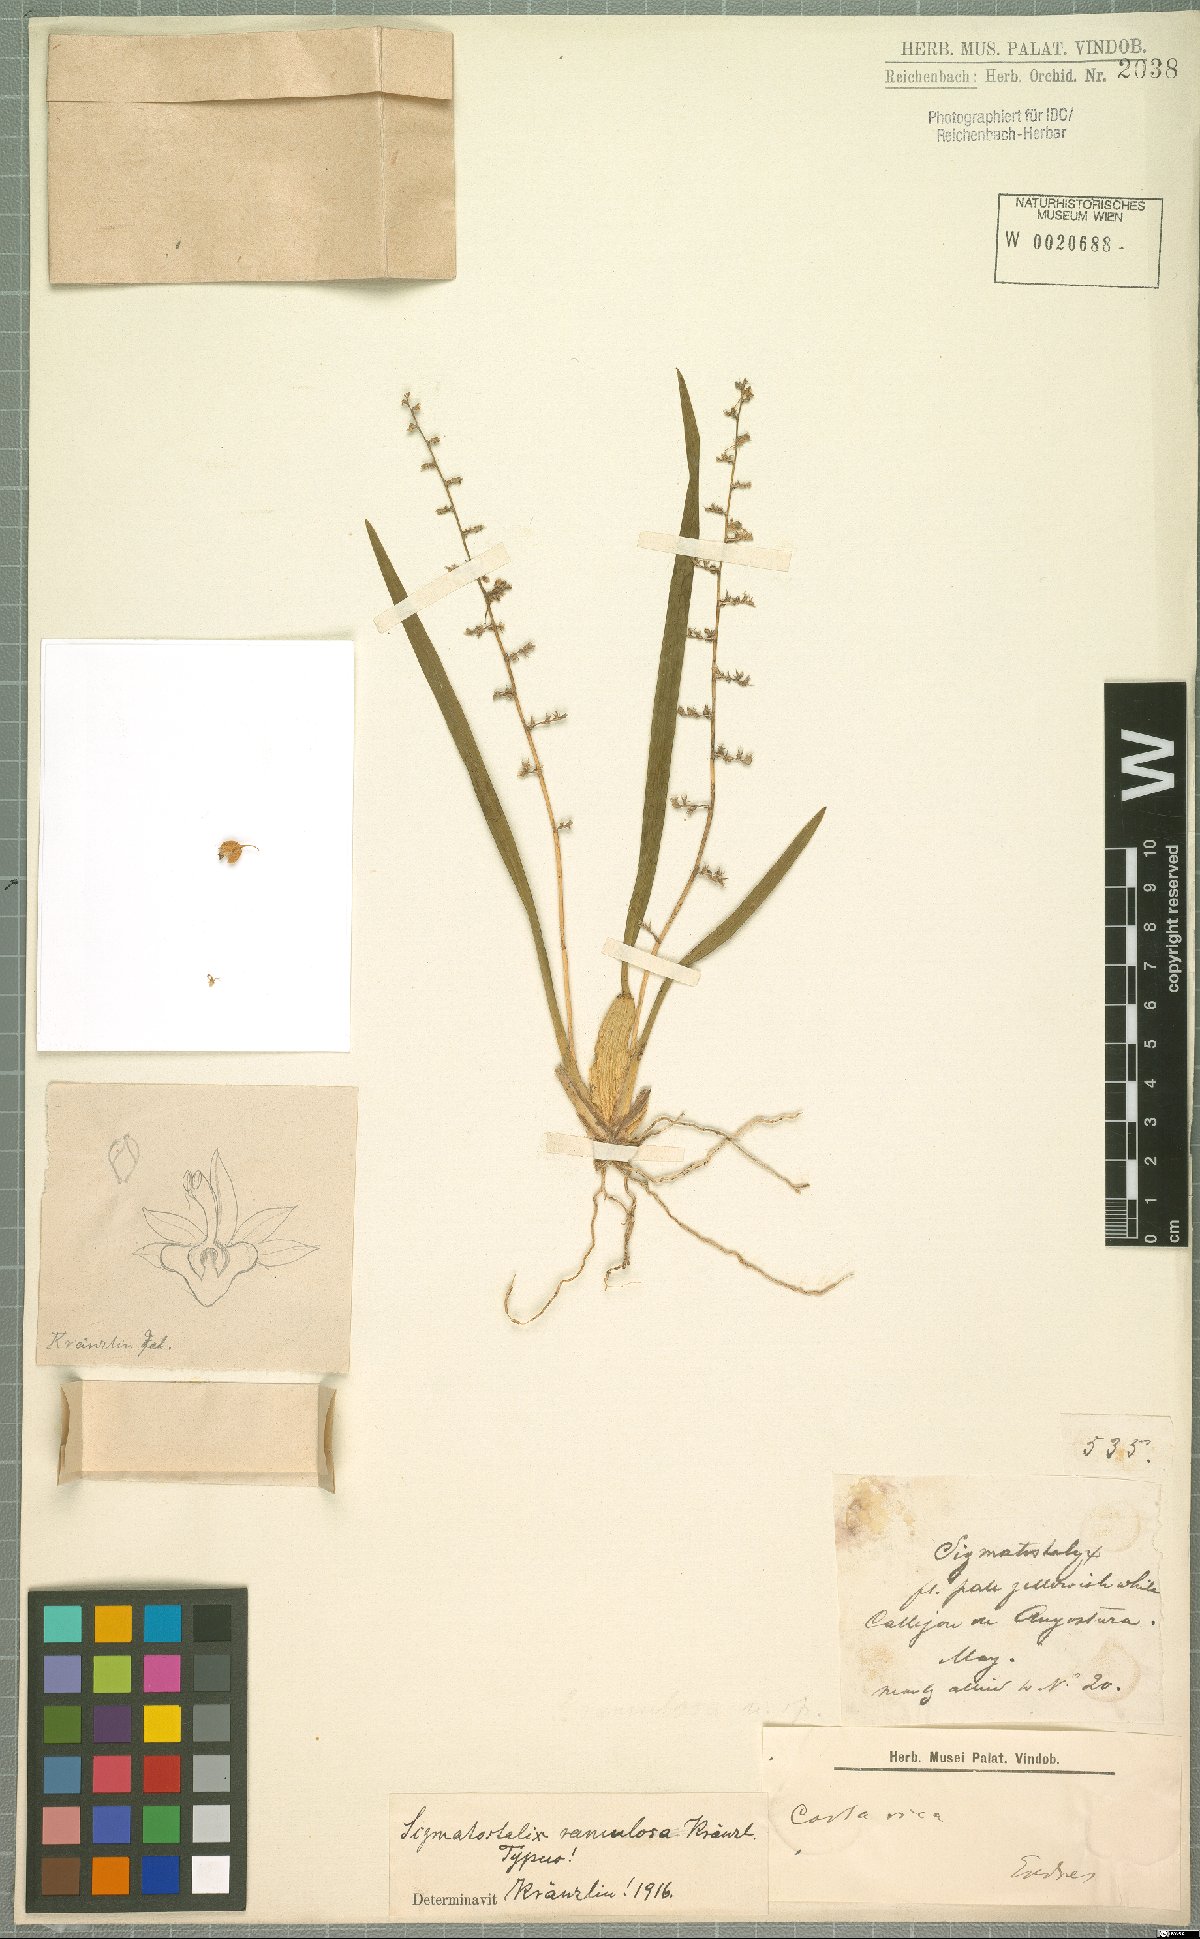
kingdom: Plantae
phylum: Tracheophyta
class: Liliopsida
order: Asparagales
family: Orchidaceae
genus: Oncidium
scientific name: Oncidium integrilabre
